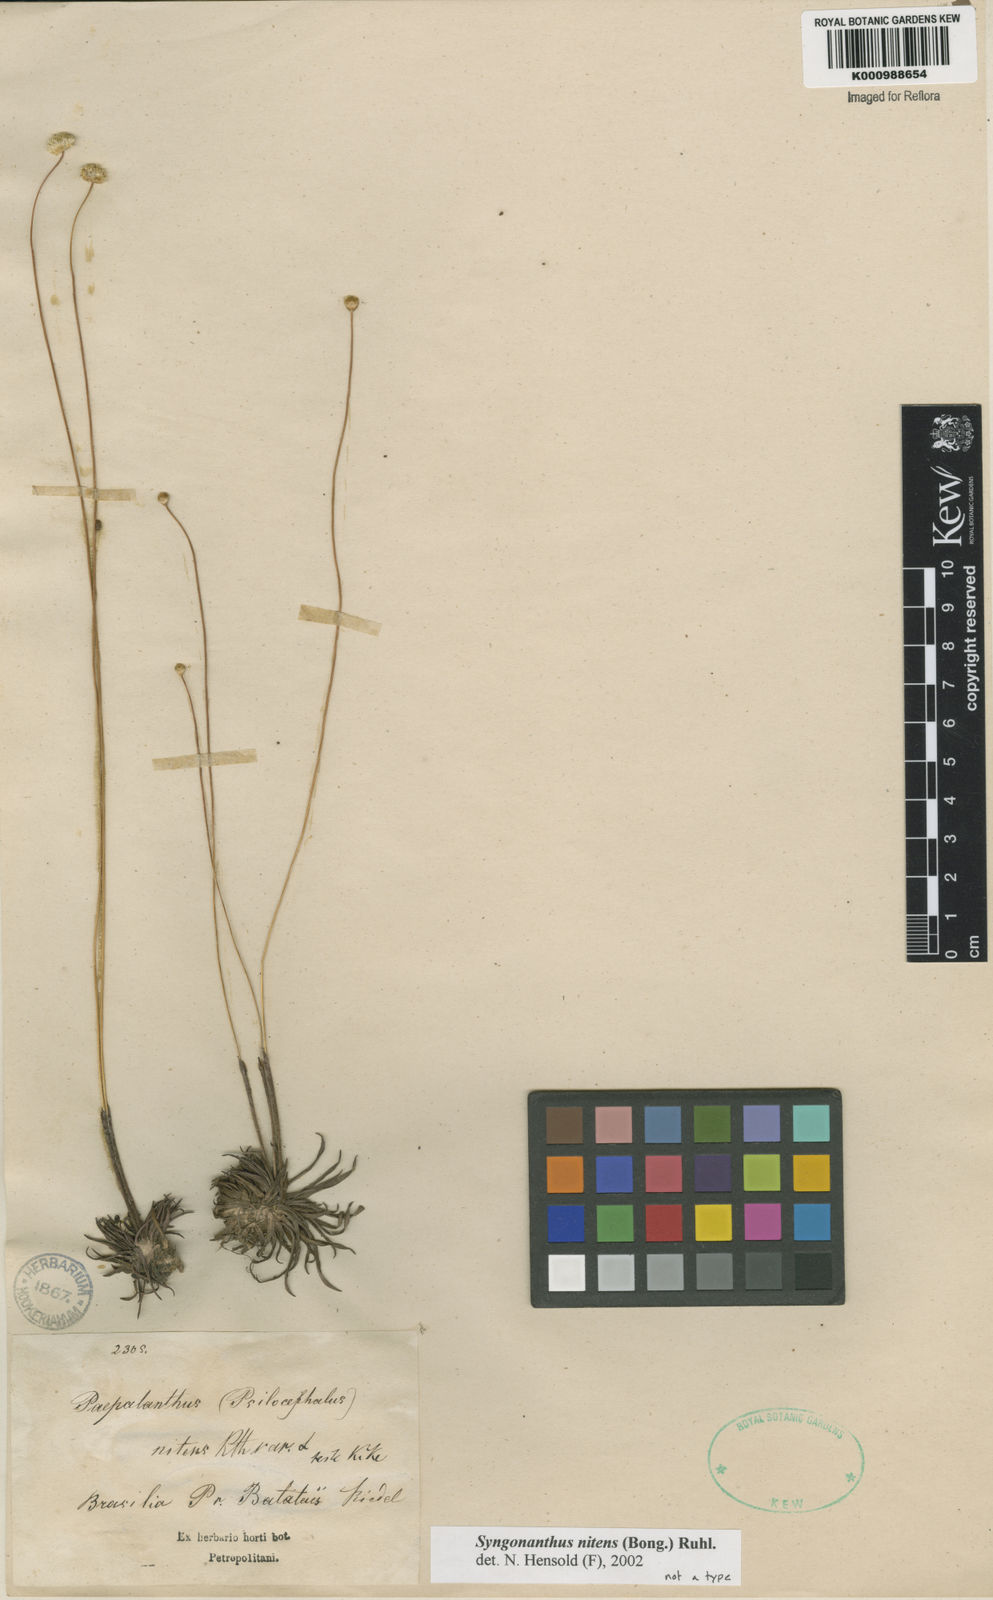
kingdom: Plantae
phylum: Tracheophyta
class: Liliopsida
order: Poales
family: Eriocaulaceae
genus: Syngonanthus
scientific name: Syngonanthus nitens
